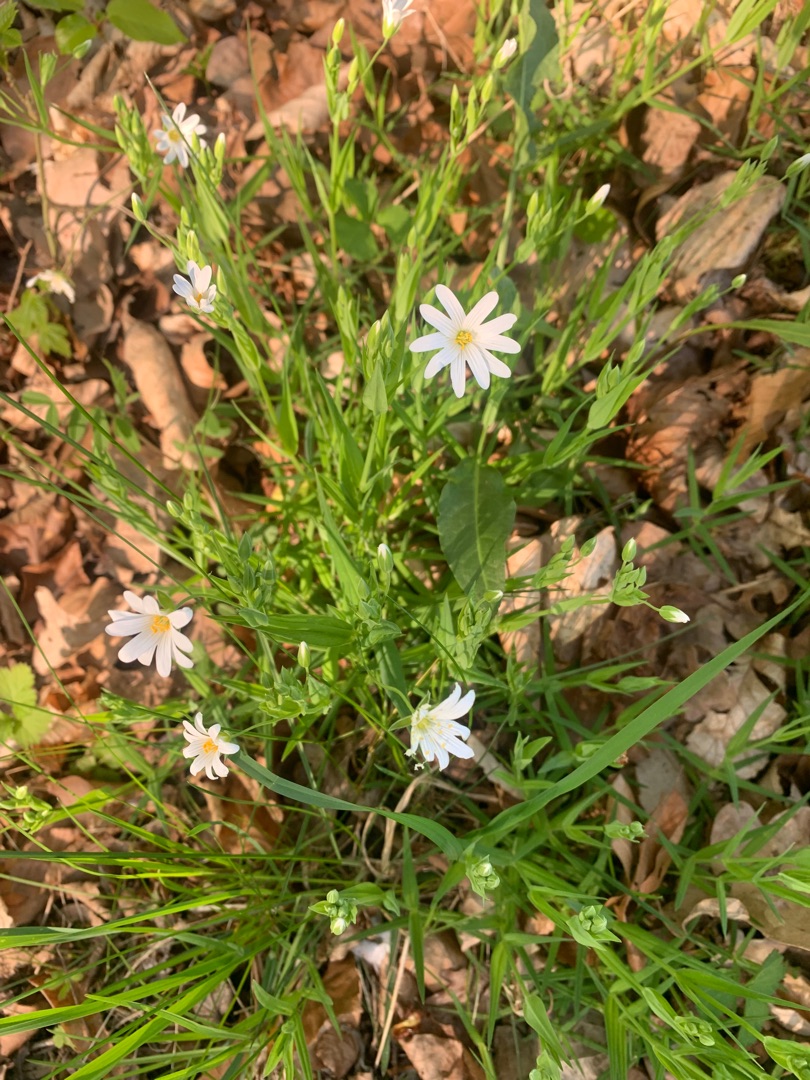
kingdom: Plantae
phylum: Tracheophyta
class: Magnoliopsida
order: Caryophyllales
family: Caryophyllaceae
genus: Rabelera
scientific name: Rabelera holostea
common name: Stor fladstjerne
